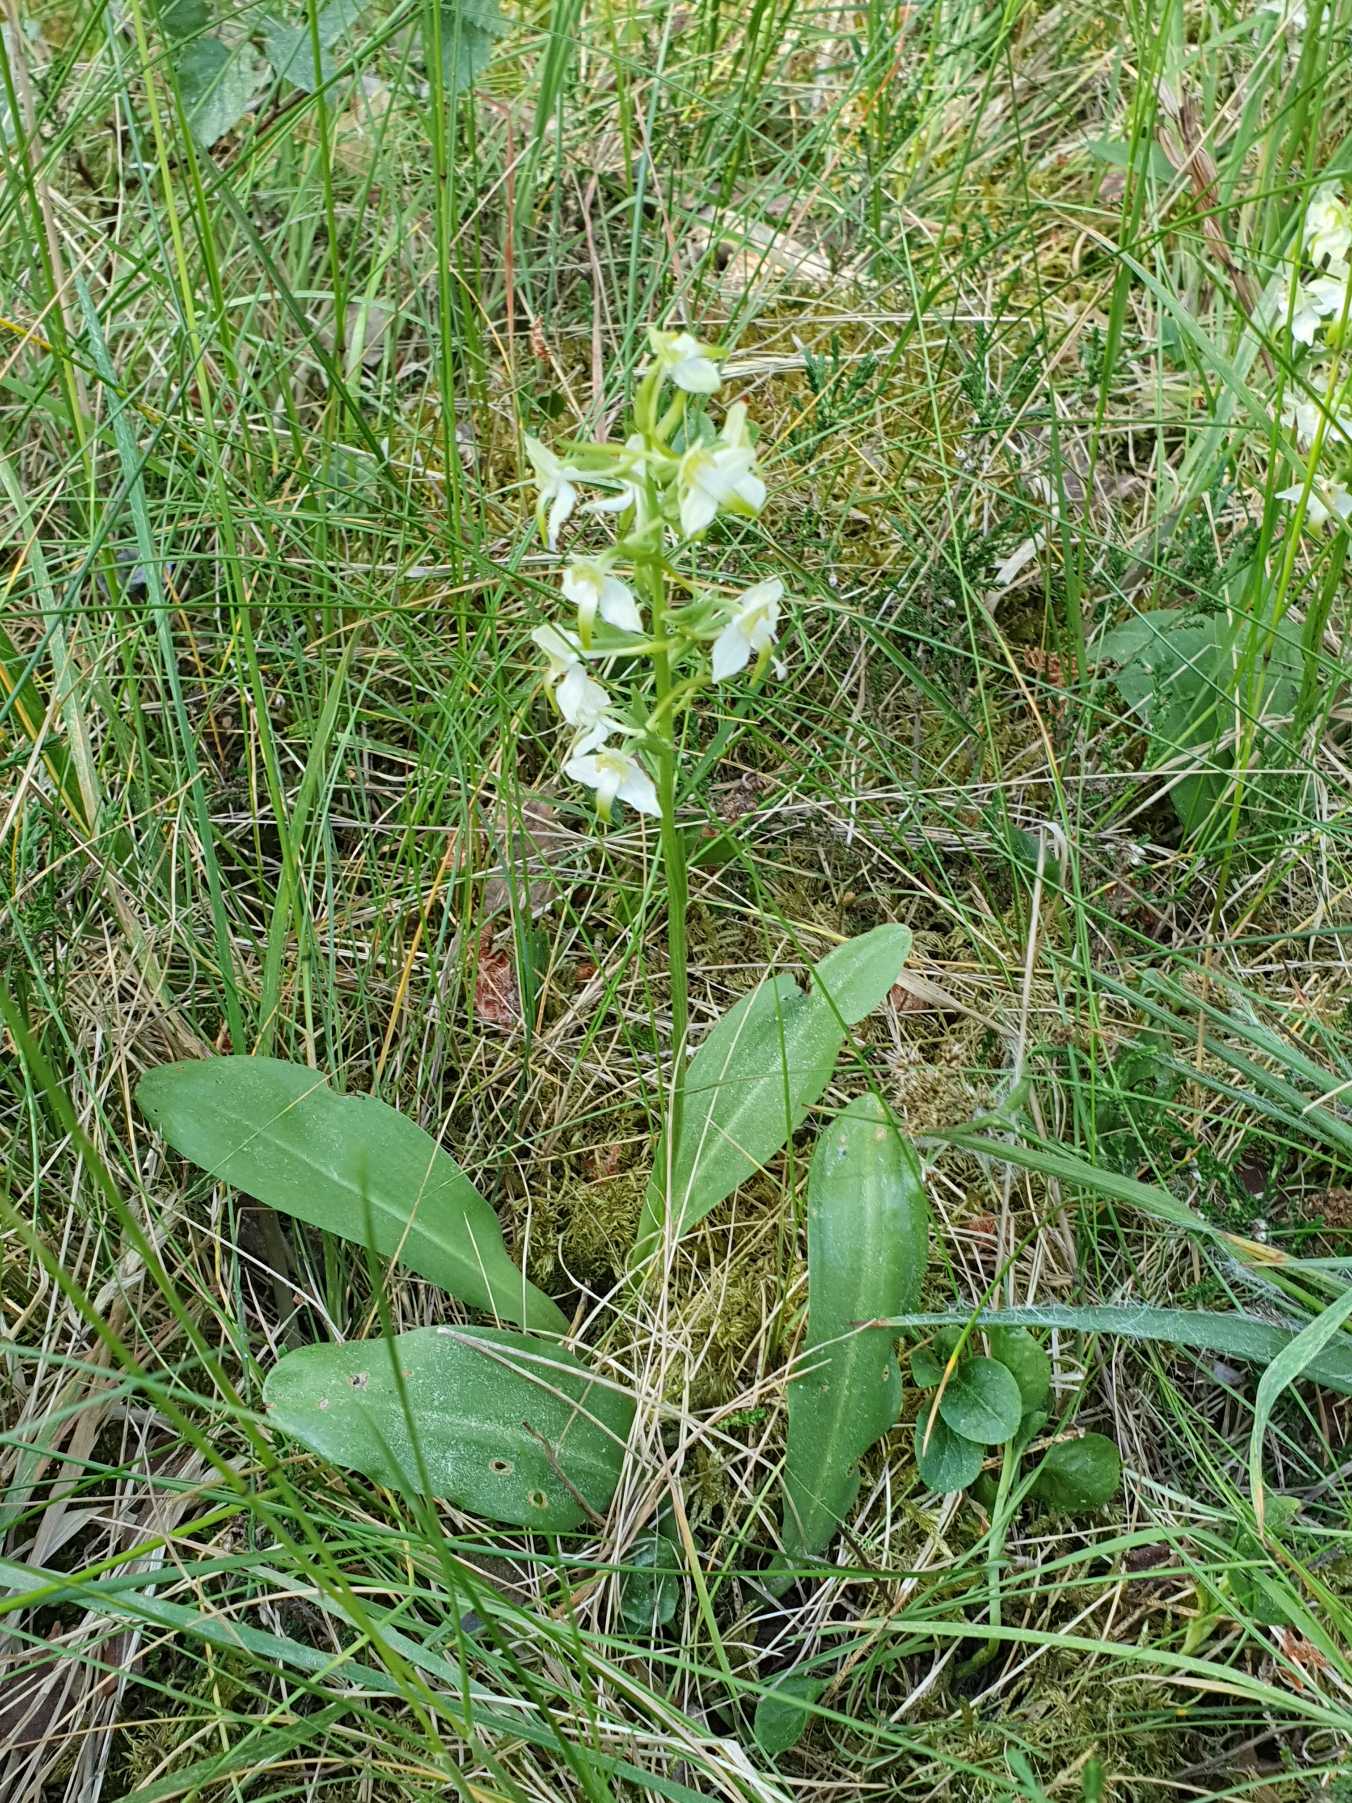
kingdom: Plantae
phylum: Tracheophyta
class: Liliopsida
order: Asparagales
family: Orchidaceae
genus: Platanthera
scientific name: Platanthera chlorantha
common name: Skov-gøgelilje
